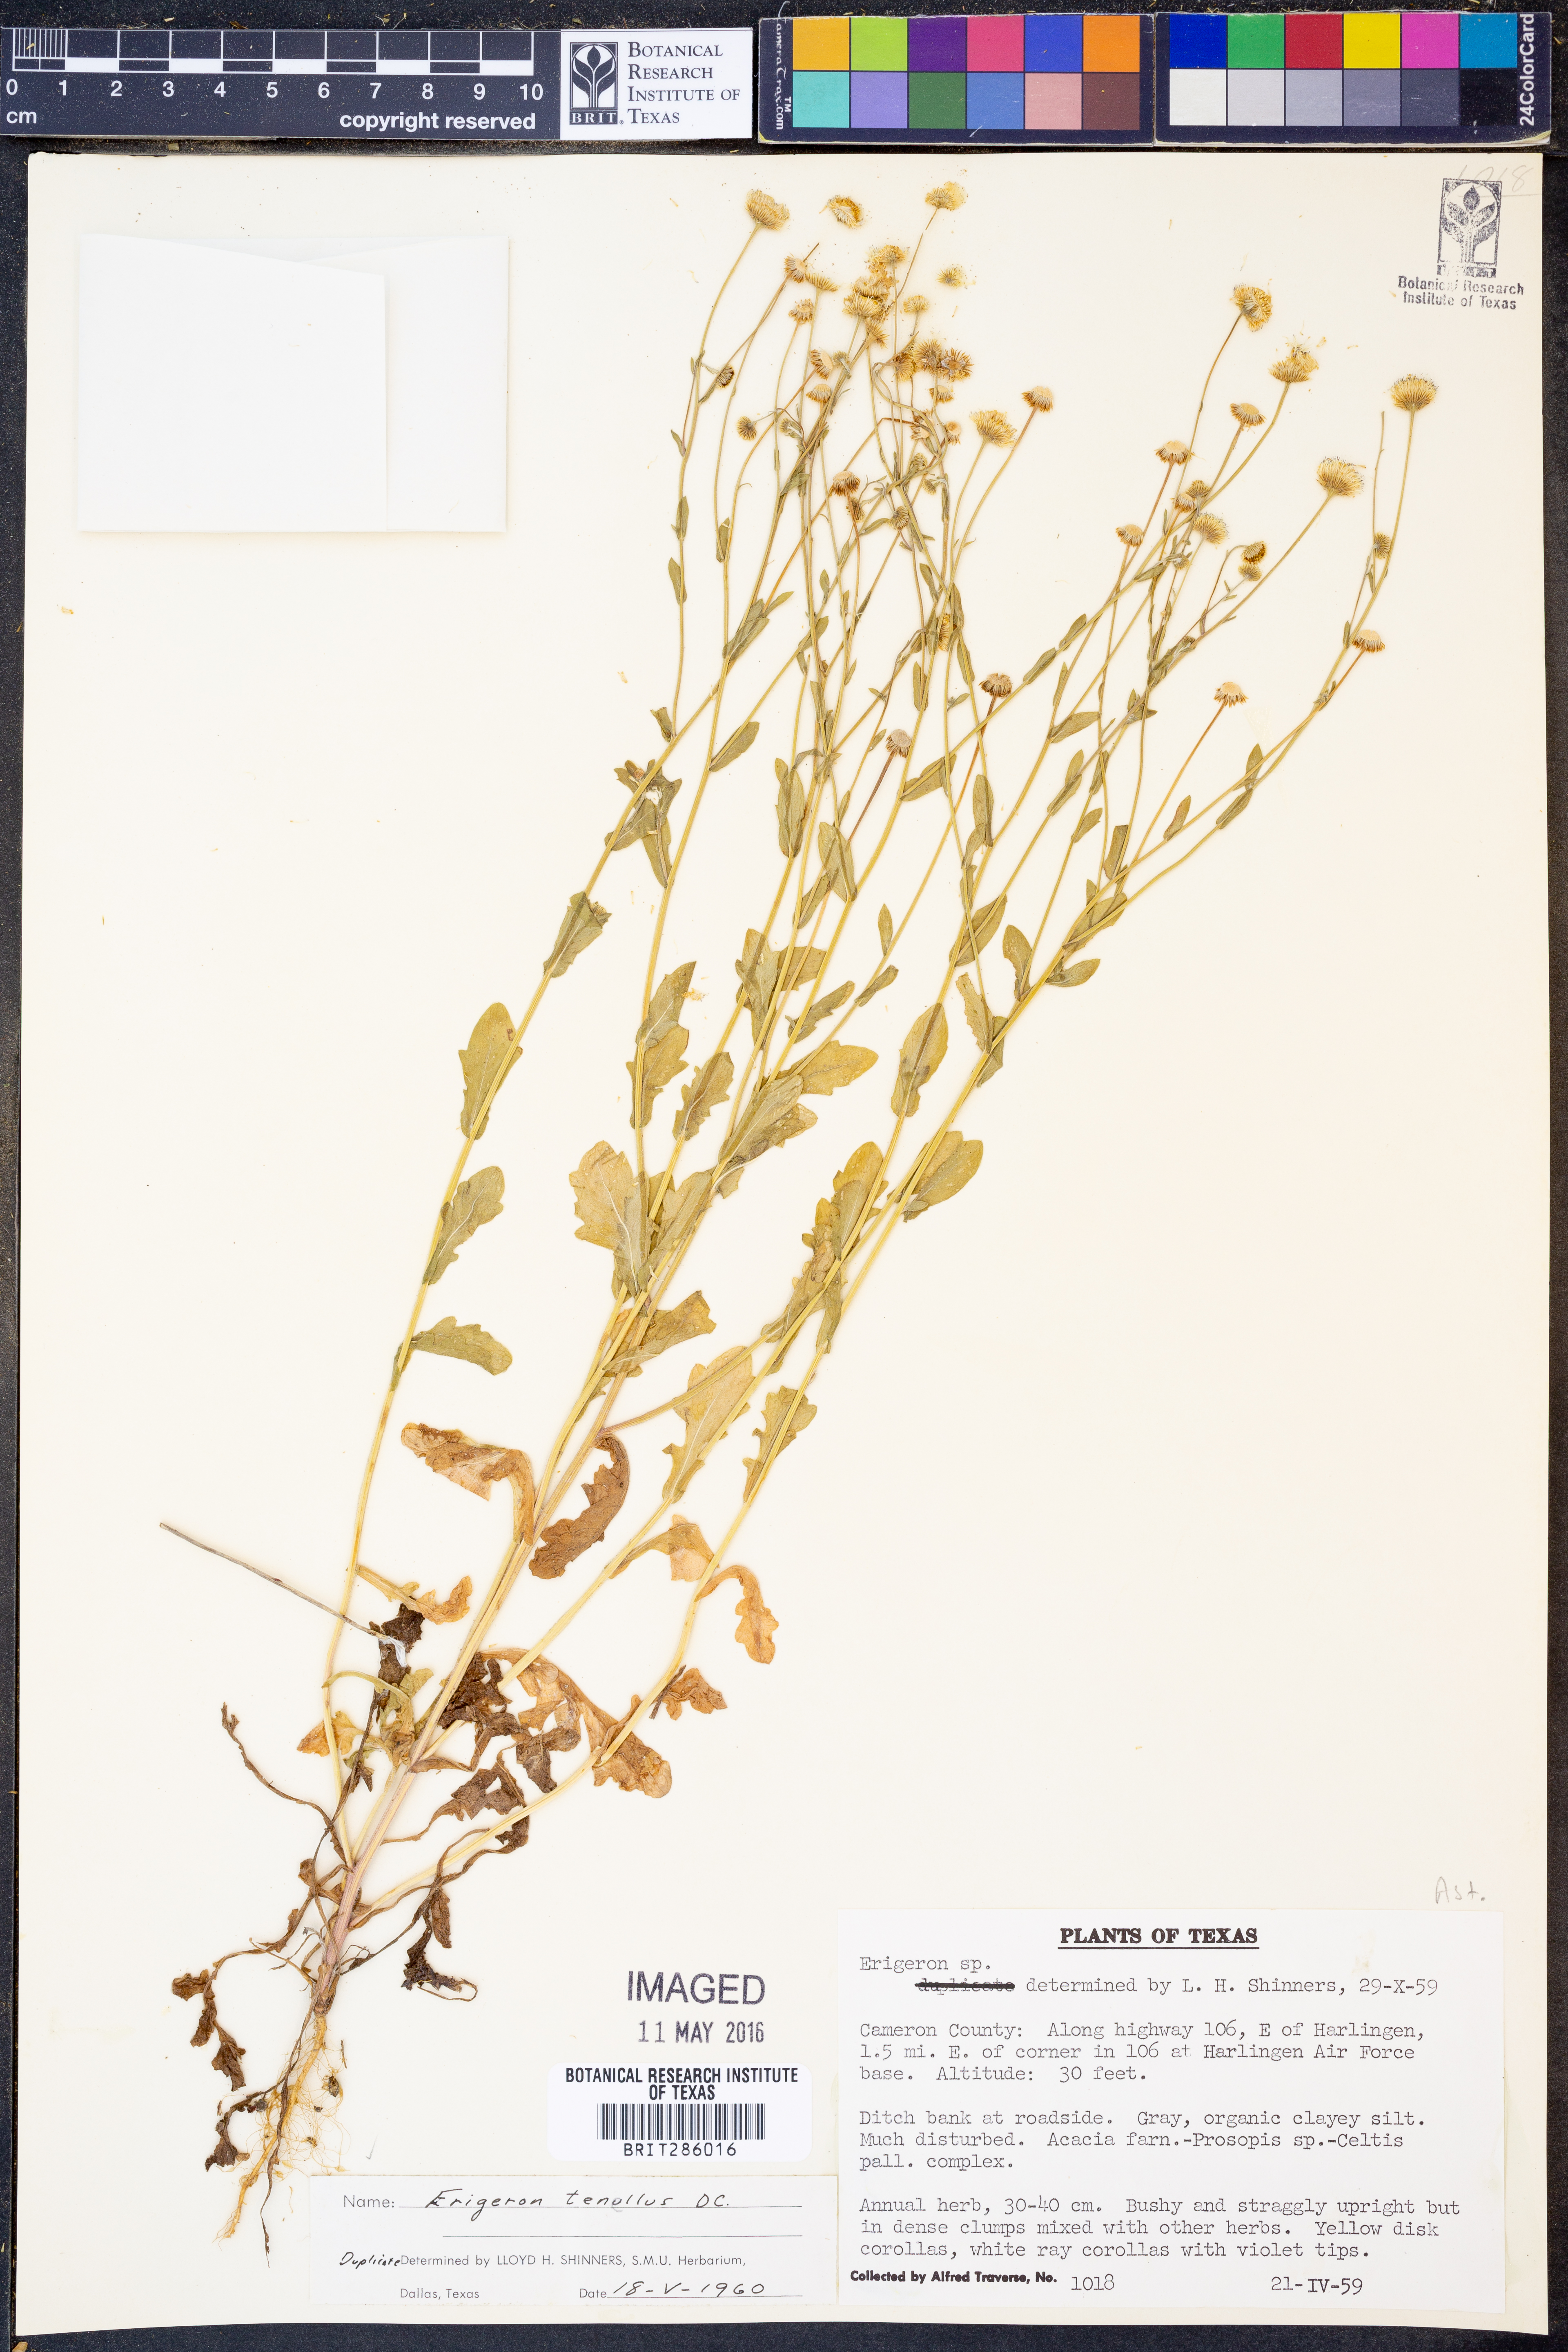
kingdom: Plantae
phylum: Tracheophyta
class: Magnoliopsida
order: Asterales
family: Asteraceae
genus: Erigeron
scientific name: Erigeron tenellus
